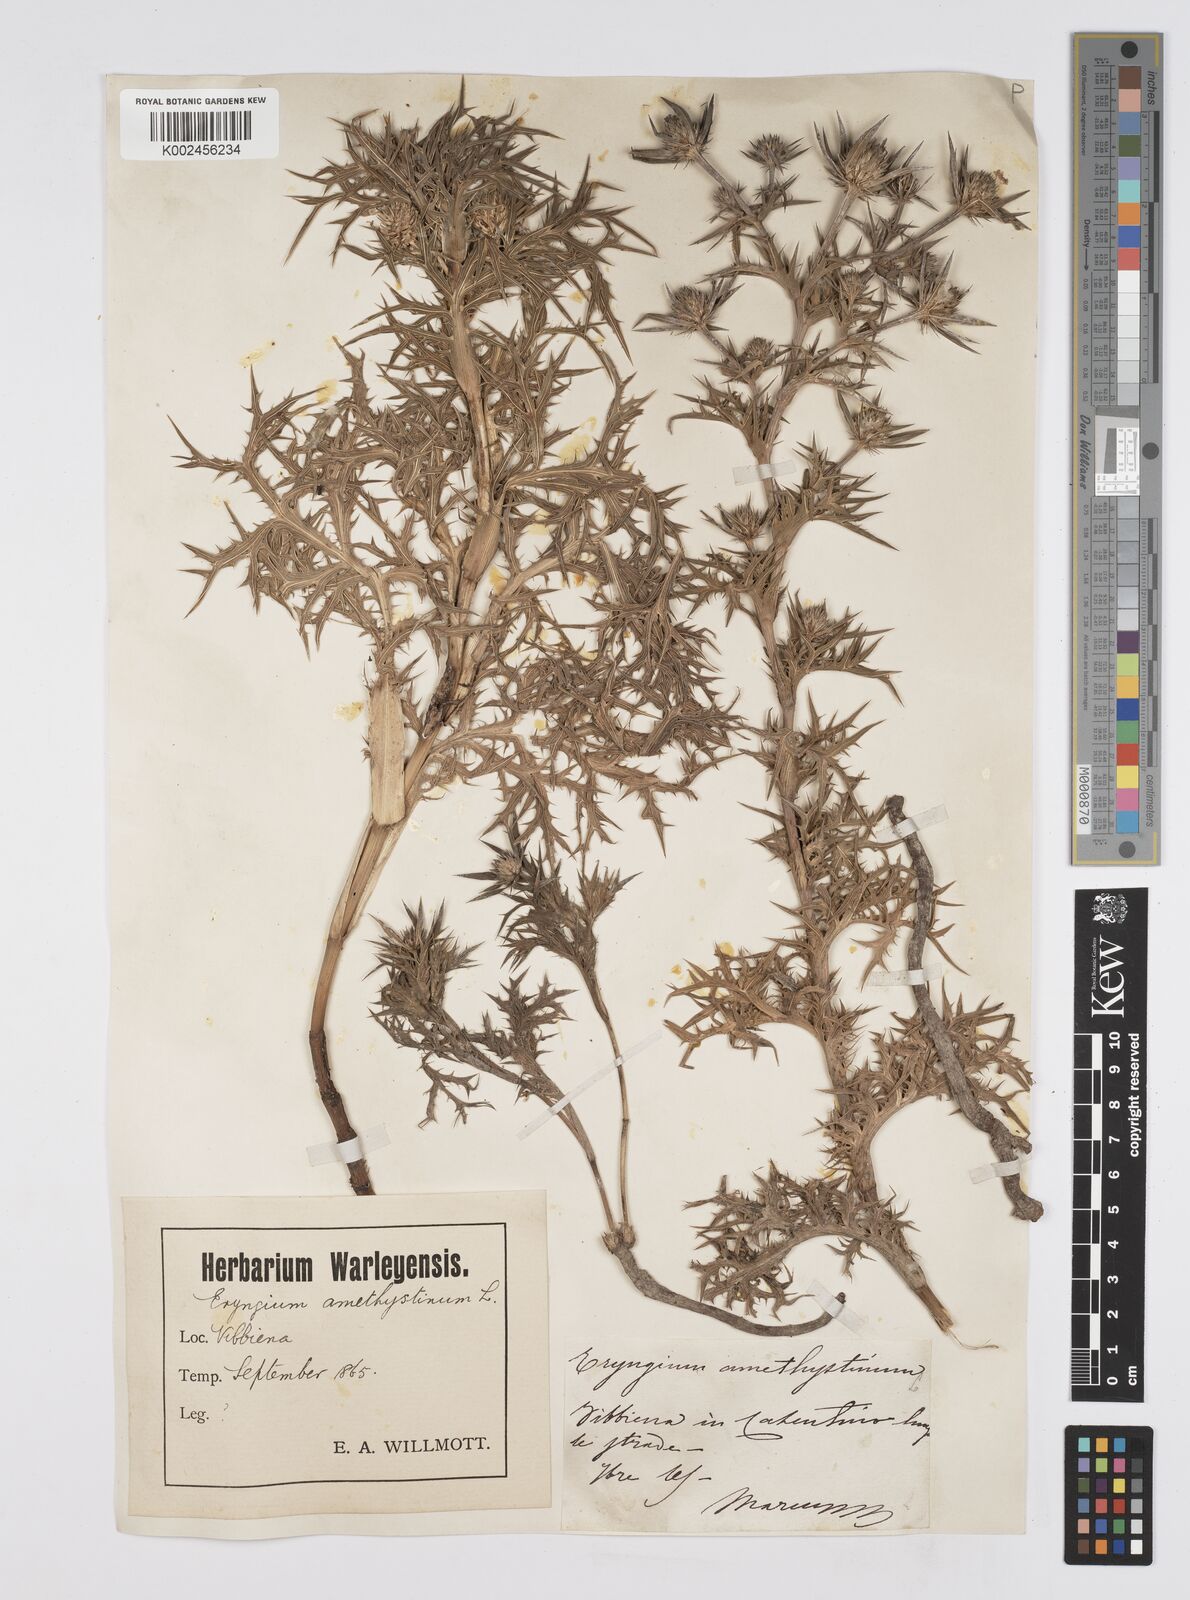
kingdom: Plantae
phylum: Tracheophyta
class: Magnoliopsida
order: Apiales
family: Apiaceae
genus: Eryngium
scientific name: Eryngium amethystinum
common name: Amethyst eryngo
